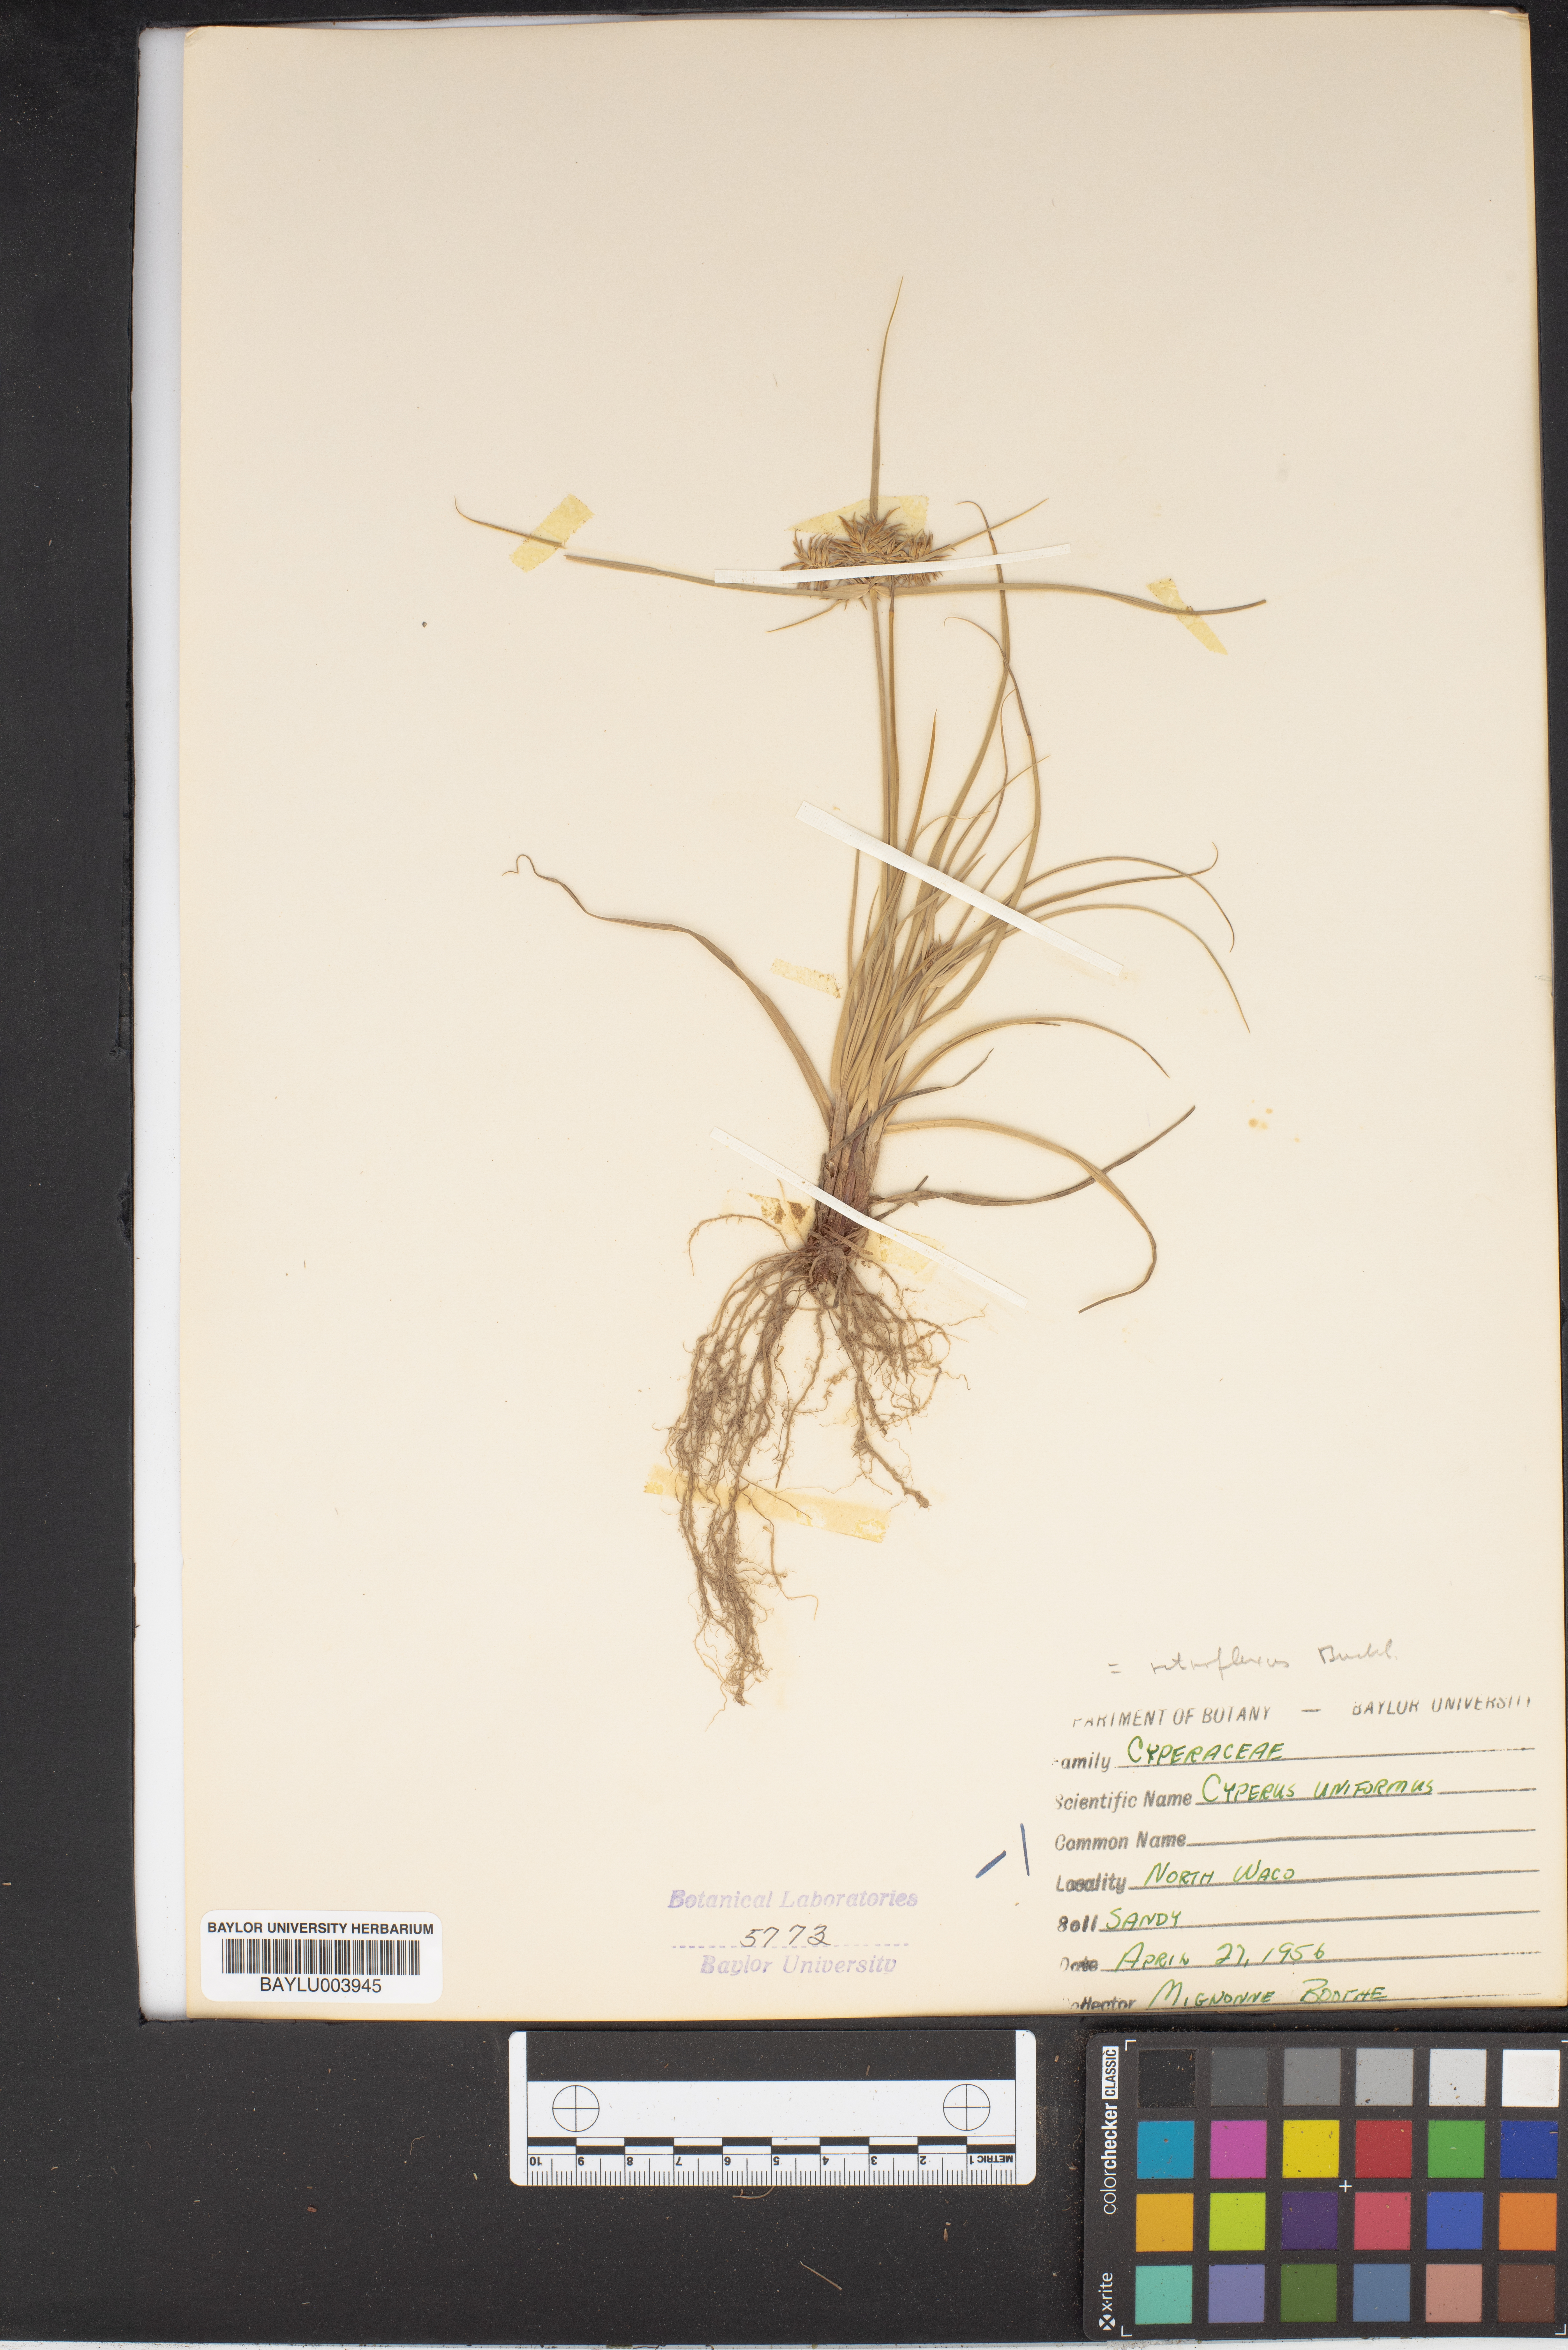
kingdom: Plantae
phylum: Tracheophyta
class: Liliopsida
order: Poales
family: Cyperaceae
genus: Cyperus
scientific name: Cyperus retroflexus
